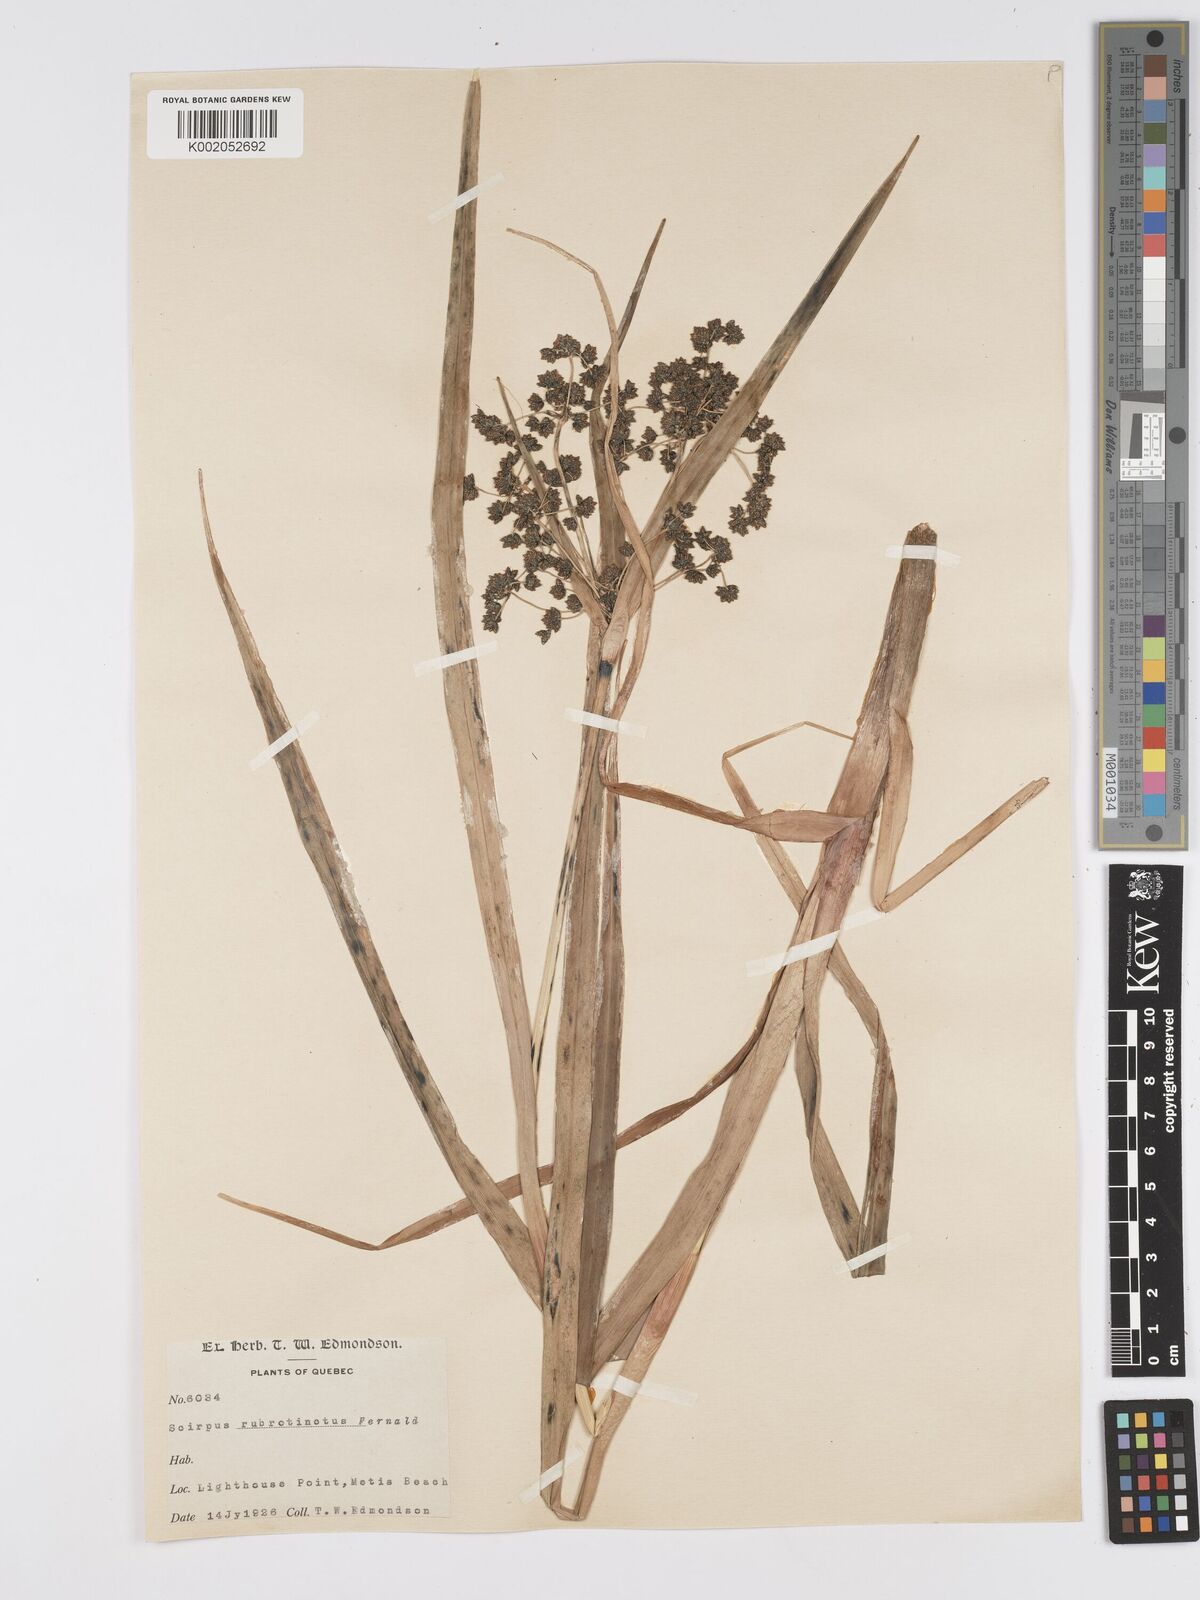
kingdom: Plantae
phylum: Tracheophyta
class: Liliopsida
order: Poales
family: Cyperaceae
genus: Scirpus
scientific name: Scirpus microcarpus
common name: Panicled bulrush
